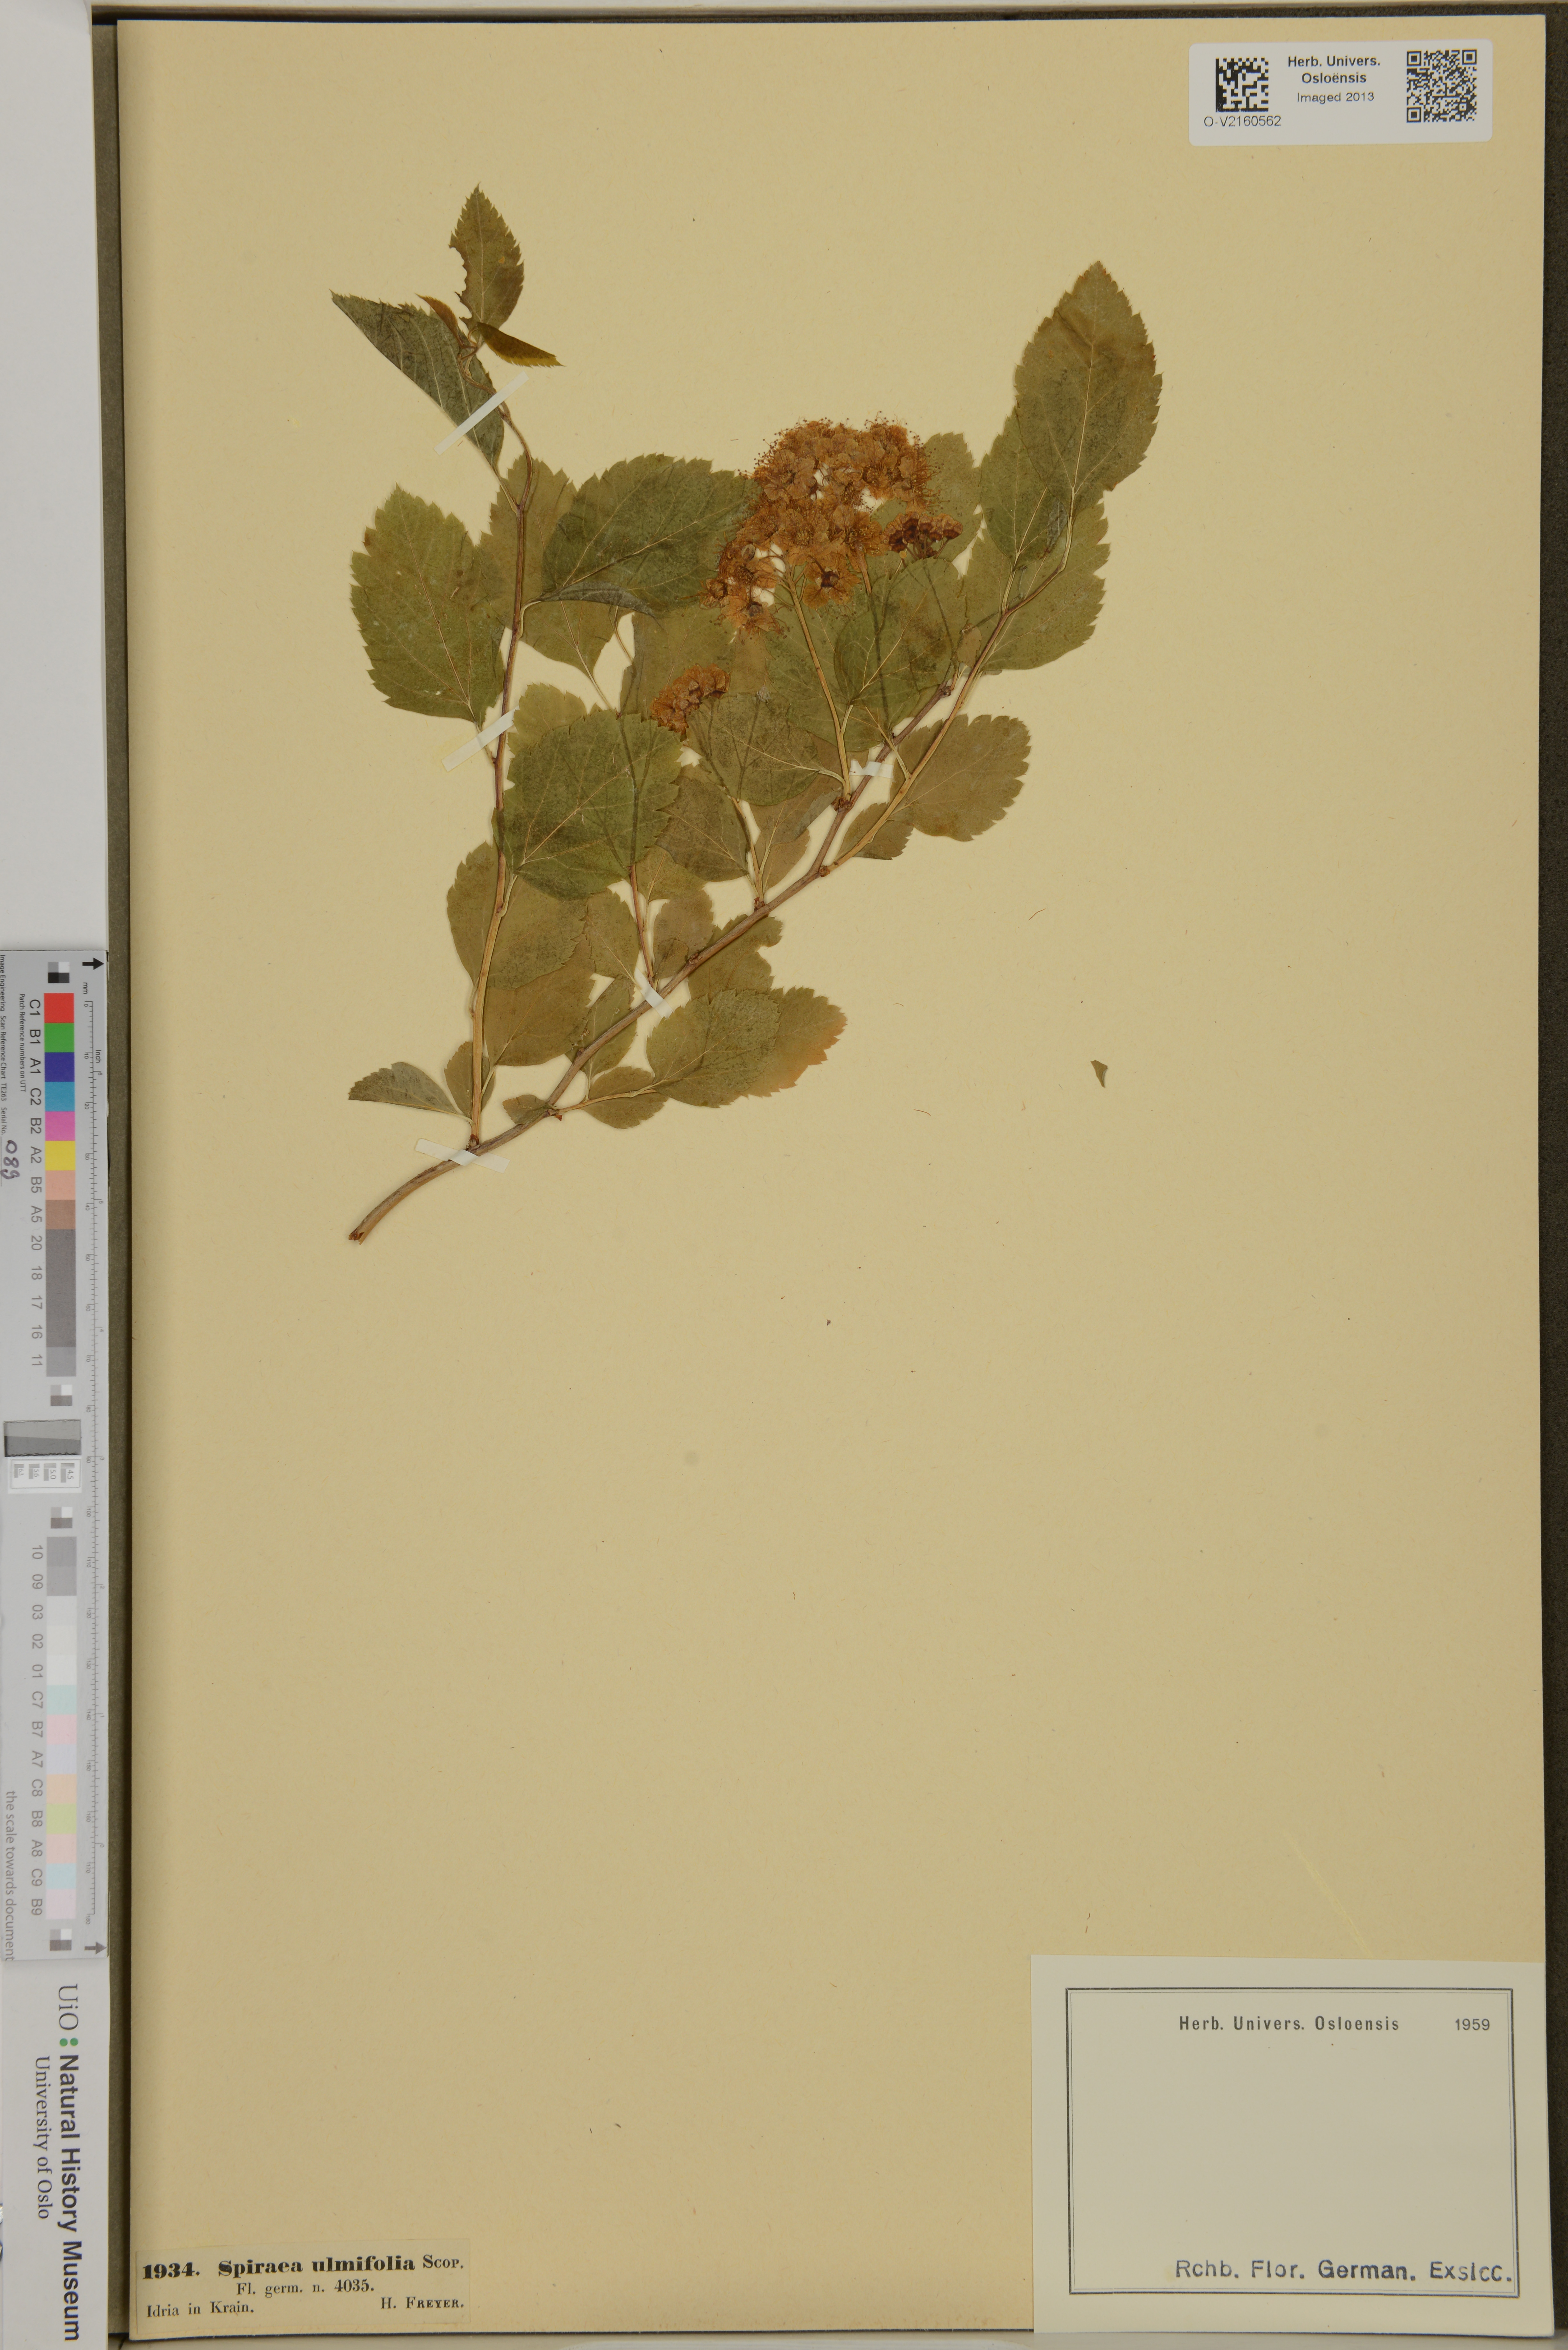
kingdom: Plantae
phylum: Tracheophyta
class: Magnoliopsida
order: Rosales
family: Rosaceae
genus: Spiraea
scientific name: Spiraea chamaedryfolia
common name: Elm-leaved spiraea
